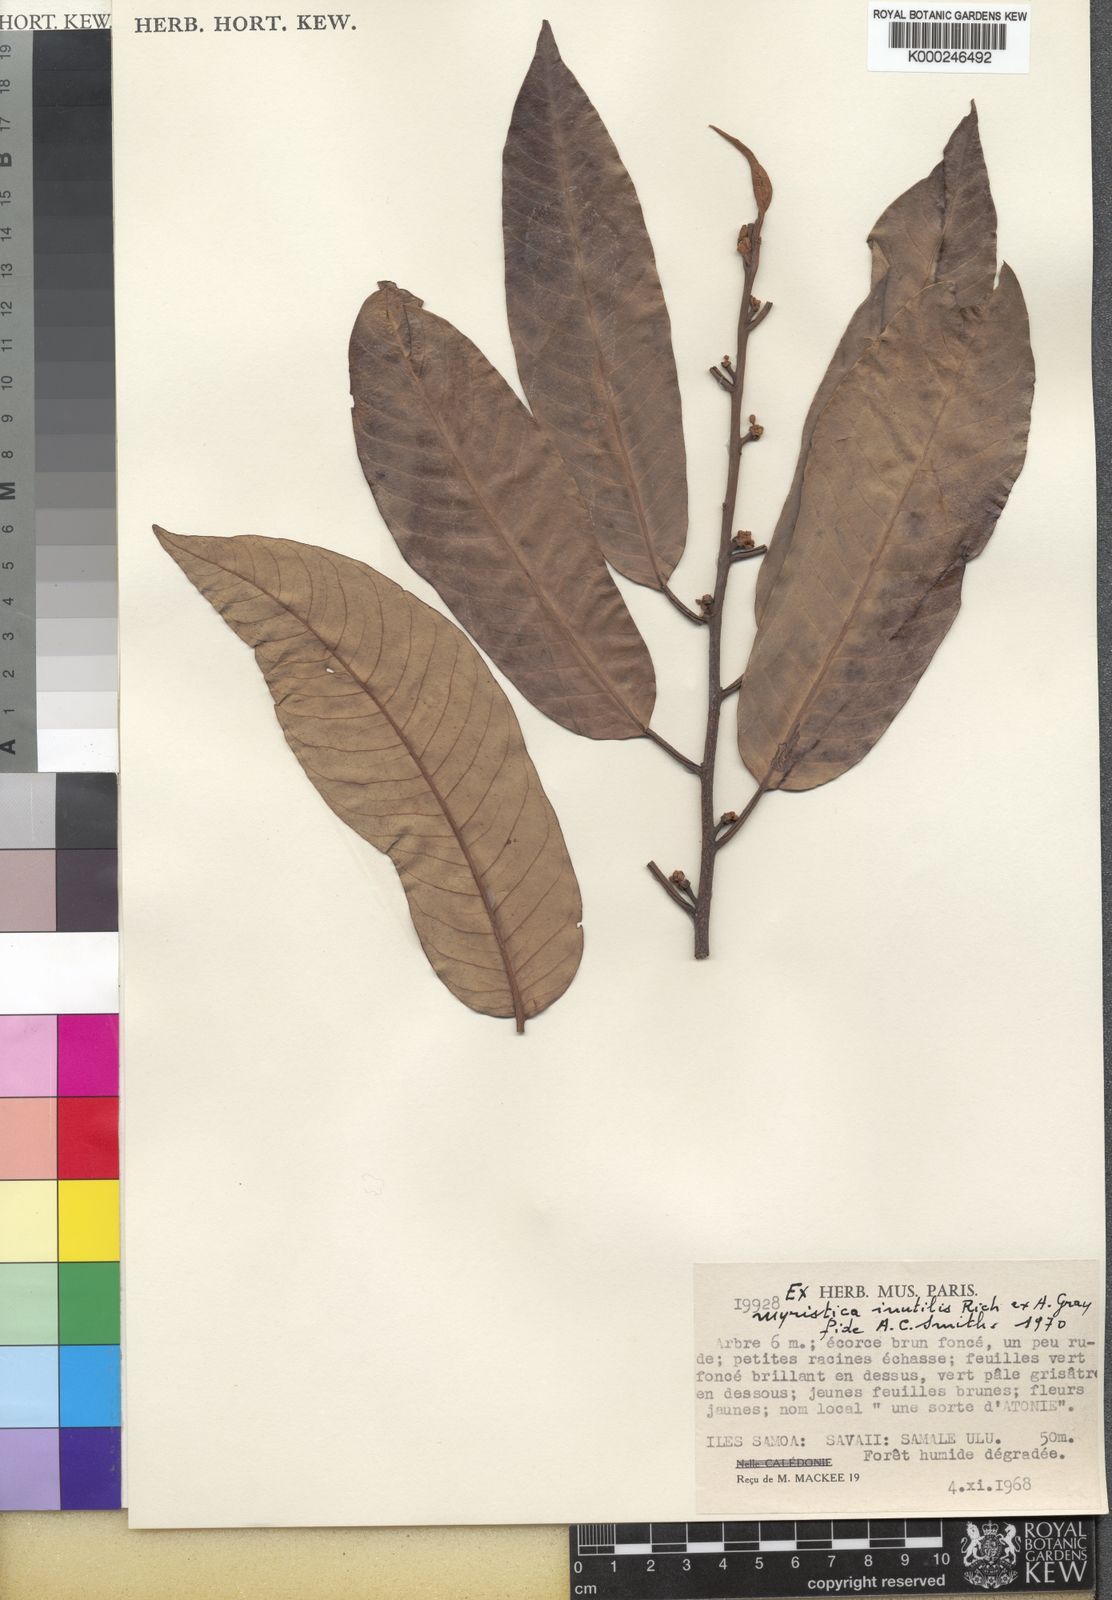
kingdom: Plantae
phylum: Tracheophyta
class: Magnoliopsida
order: Magnoliales
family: Myristicaceae
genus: Myristica
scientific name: Myristica inutilis
